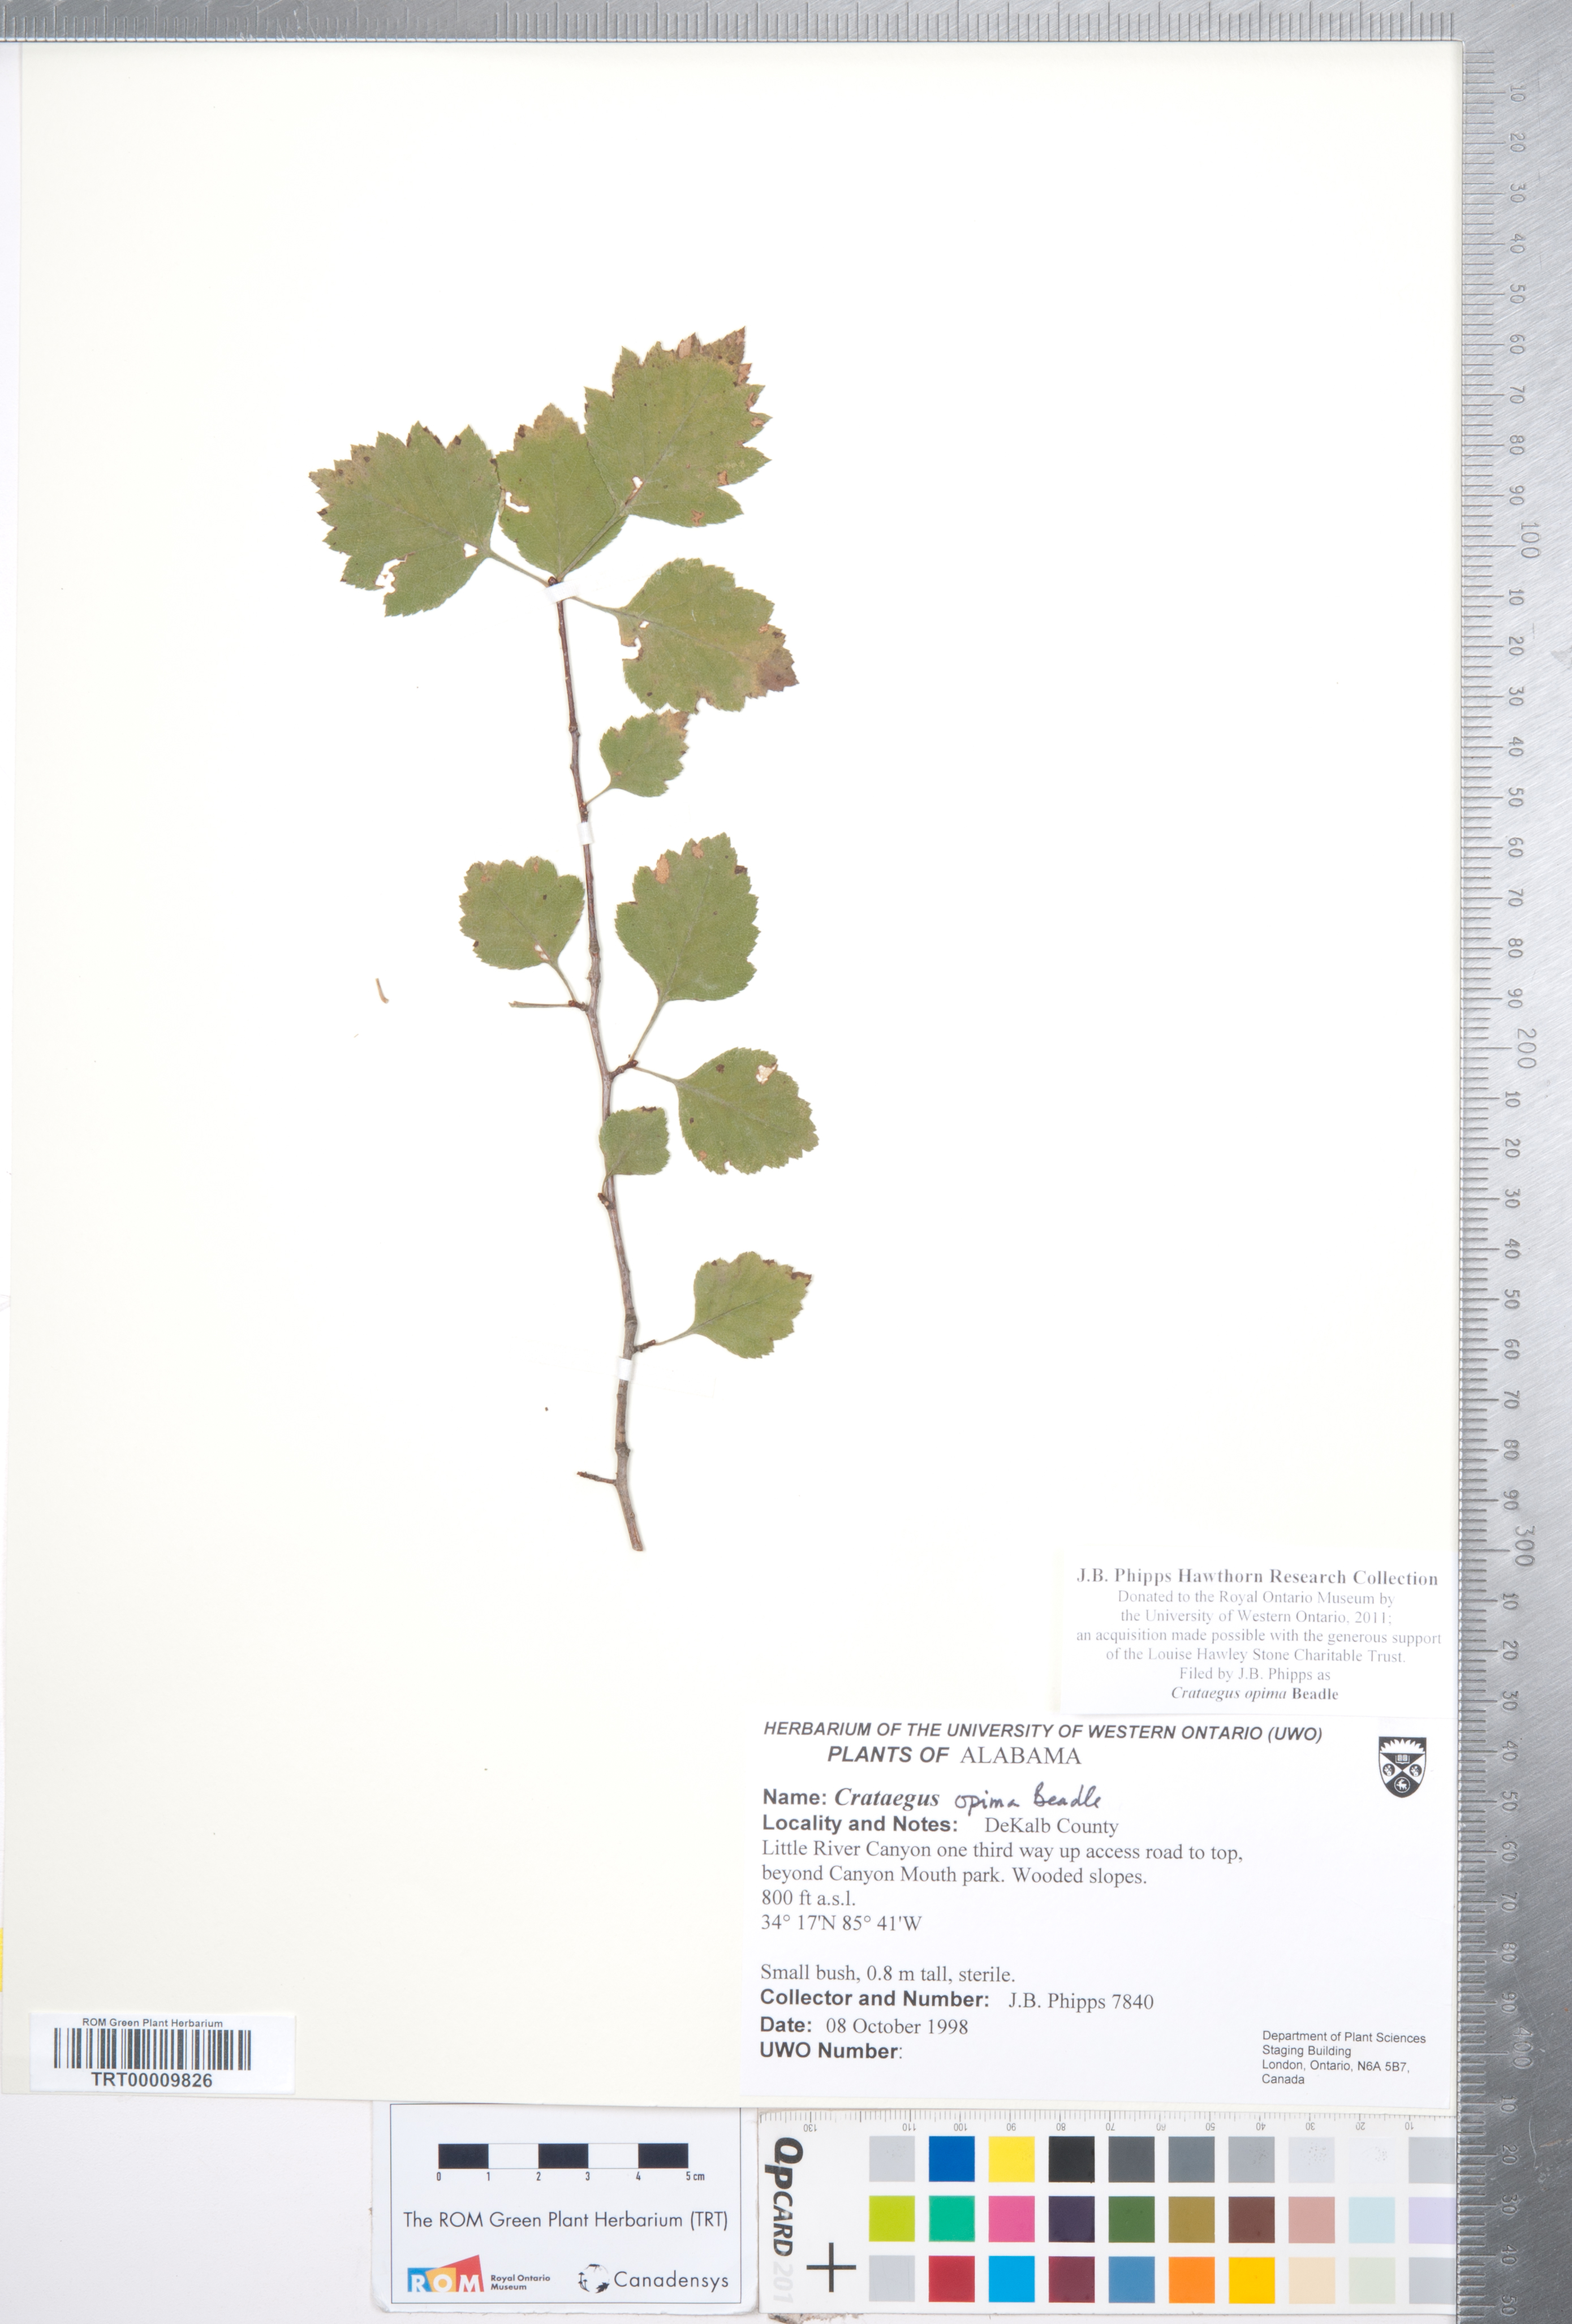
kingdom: Plantae
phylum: Tracheophyta
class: Magnoliopsida
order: Rosales
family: Rosaceae
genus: Crataegus
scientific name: Crataegus pulcherrima
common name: Beautiful hawthorn
